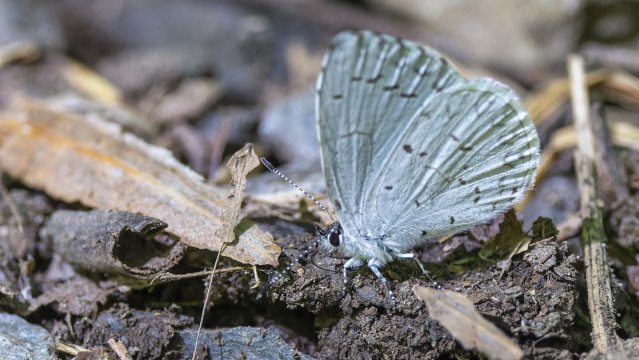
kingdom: Animalia
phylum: Arthropoda
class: Insecta
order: Lepidoptera
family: Lycaenidae
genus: Cyaniris
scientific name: Cyaniris neglecta
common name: Summer Azure
